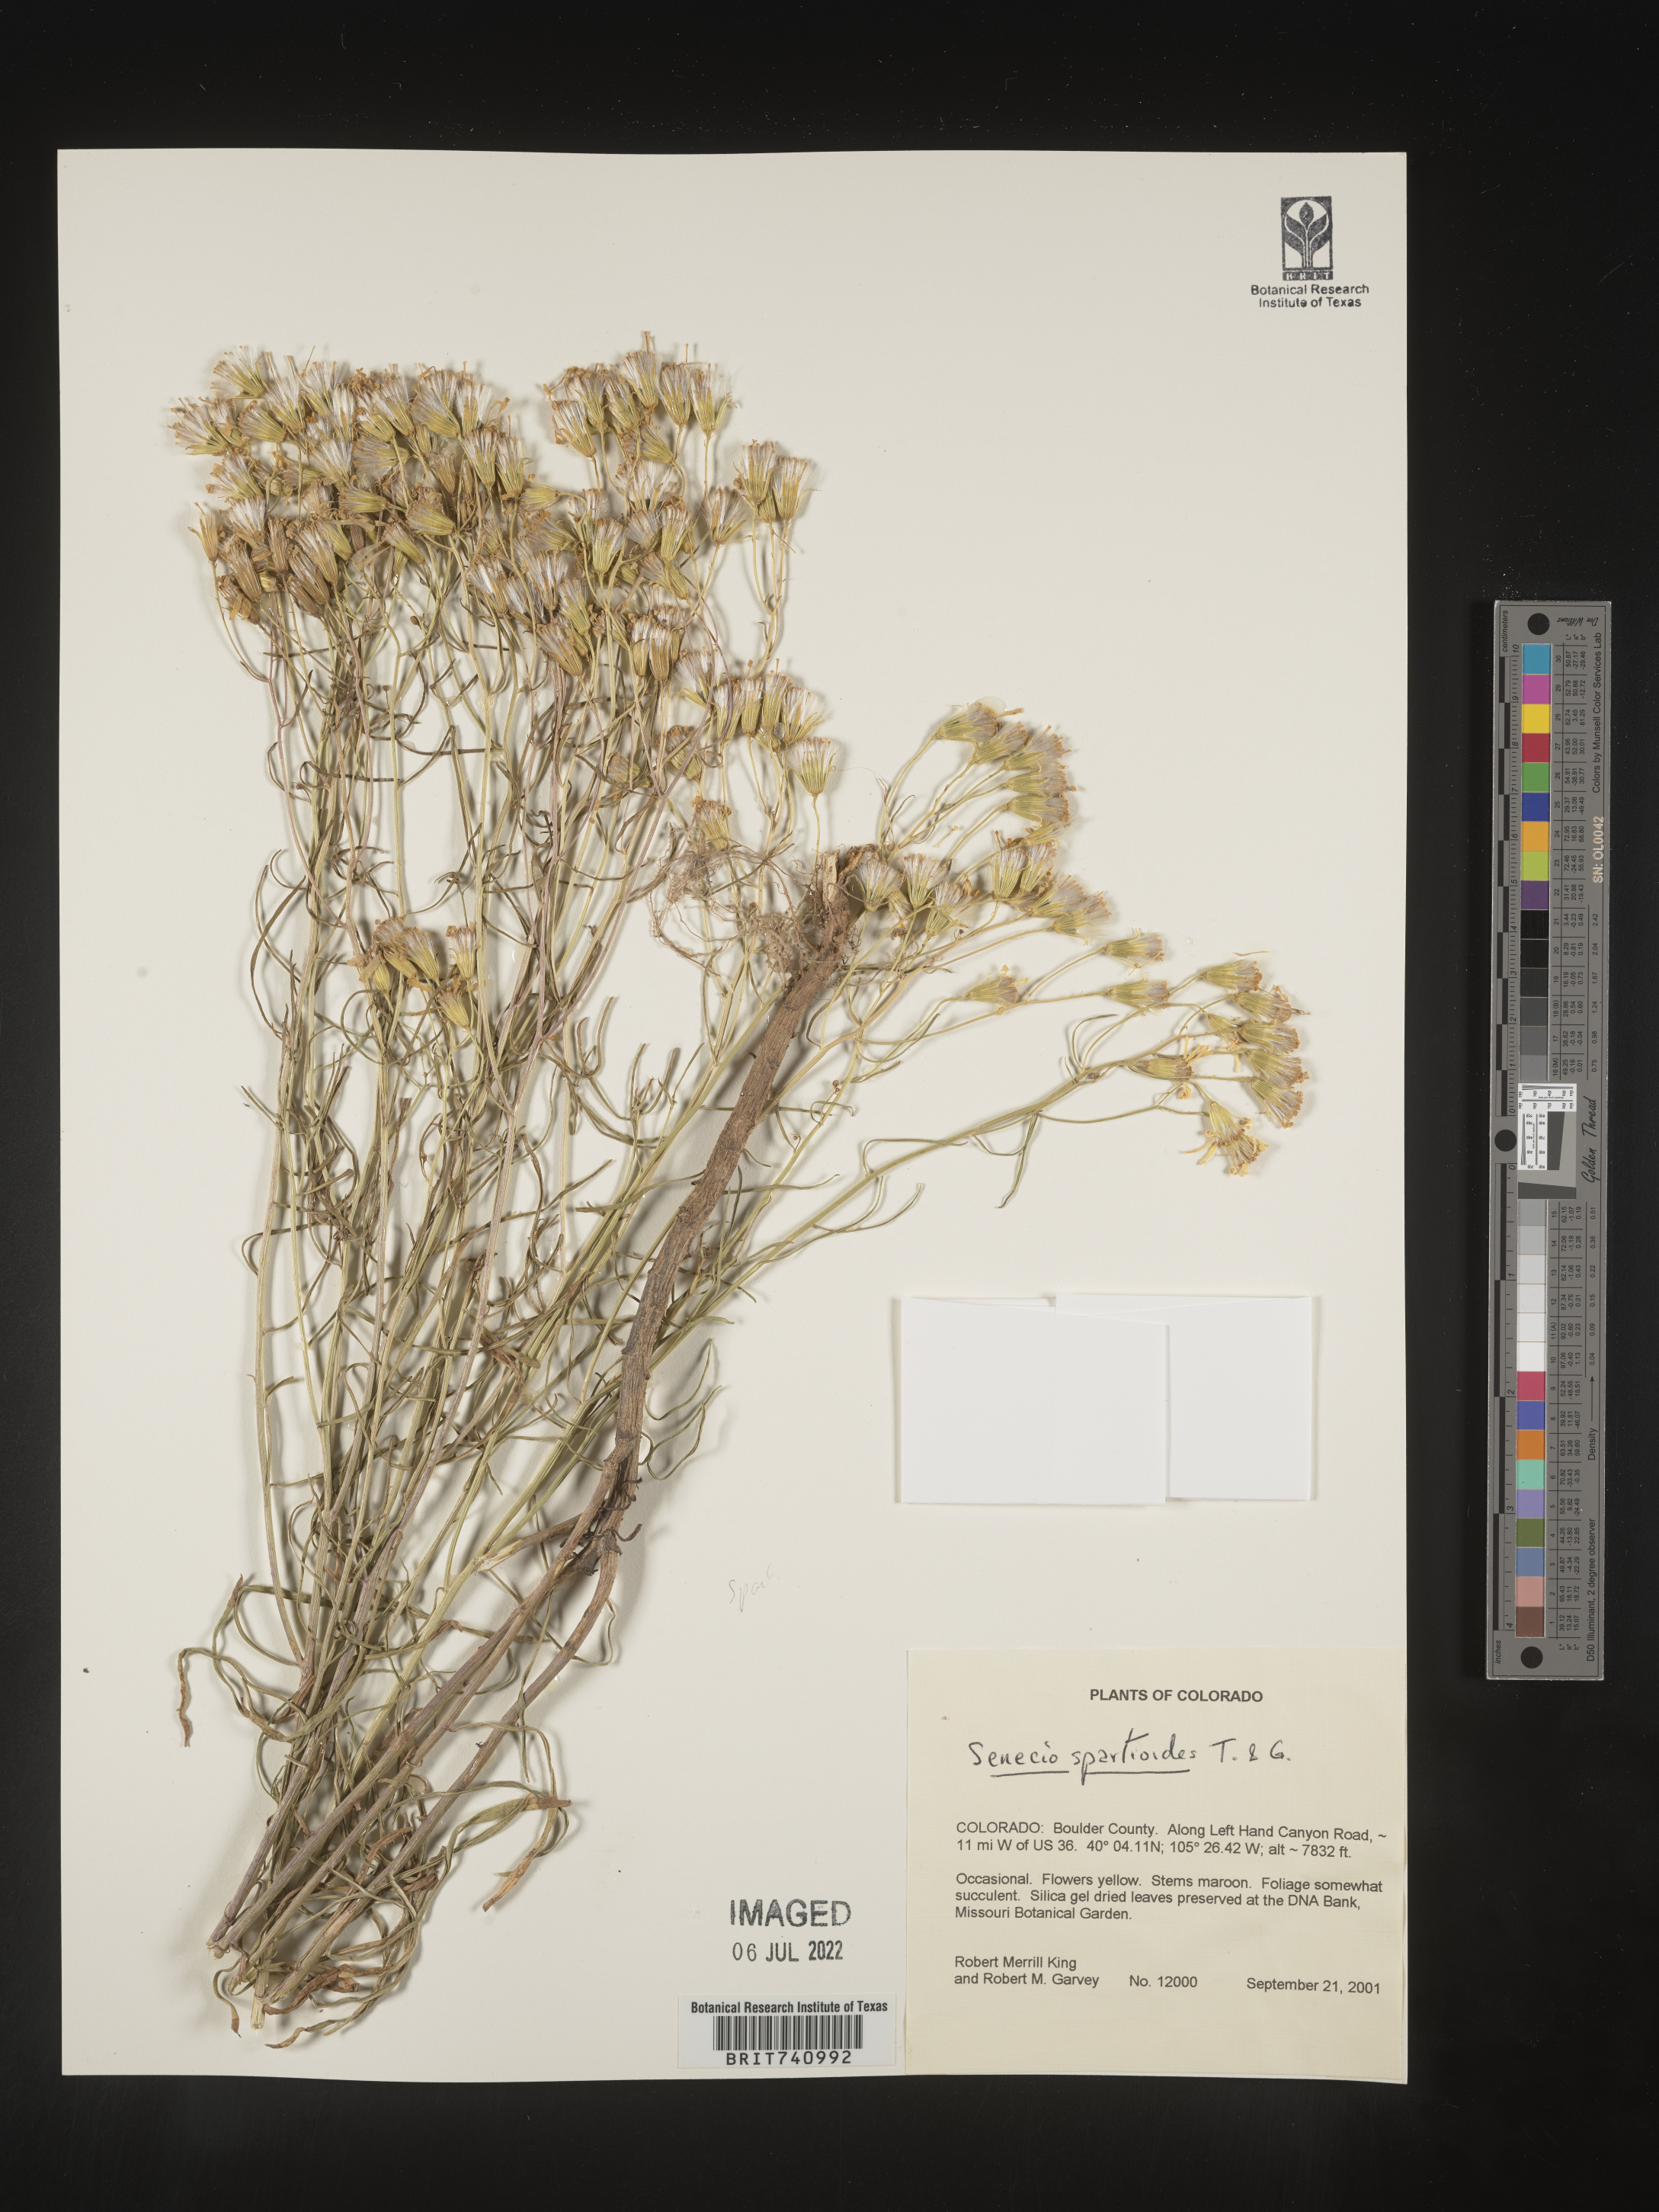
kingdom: Plantae
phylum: Tracheophyta
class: Magnoliopsida
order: Asterales
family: Asteraceae
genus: Senecio
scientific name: Senecio spartioides
